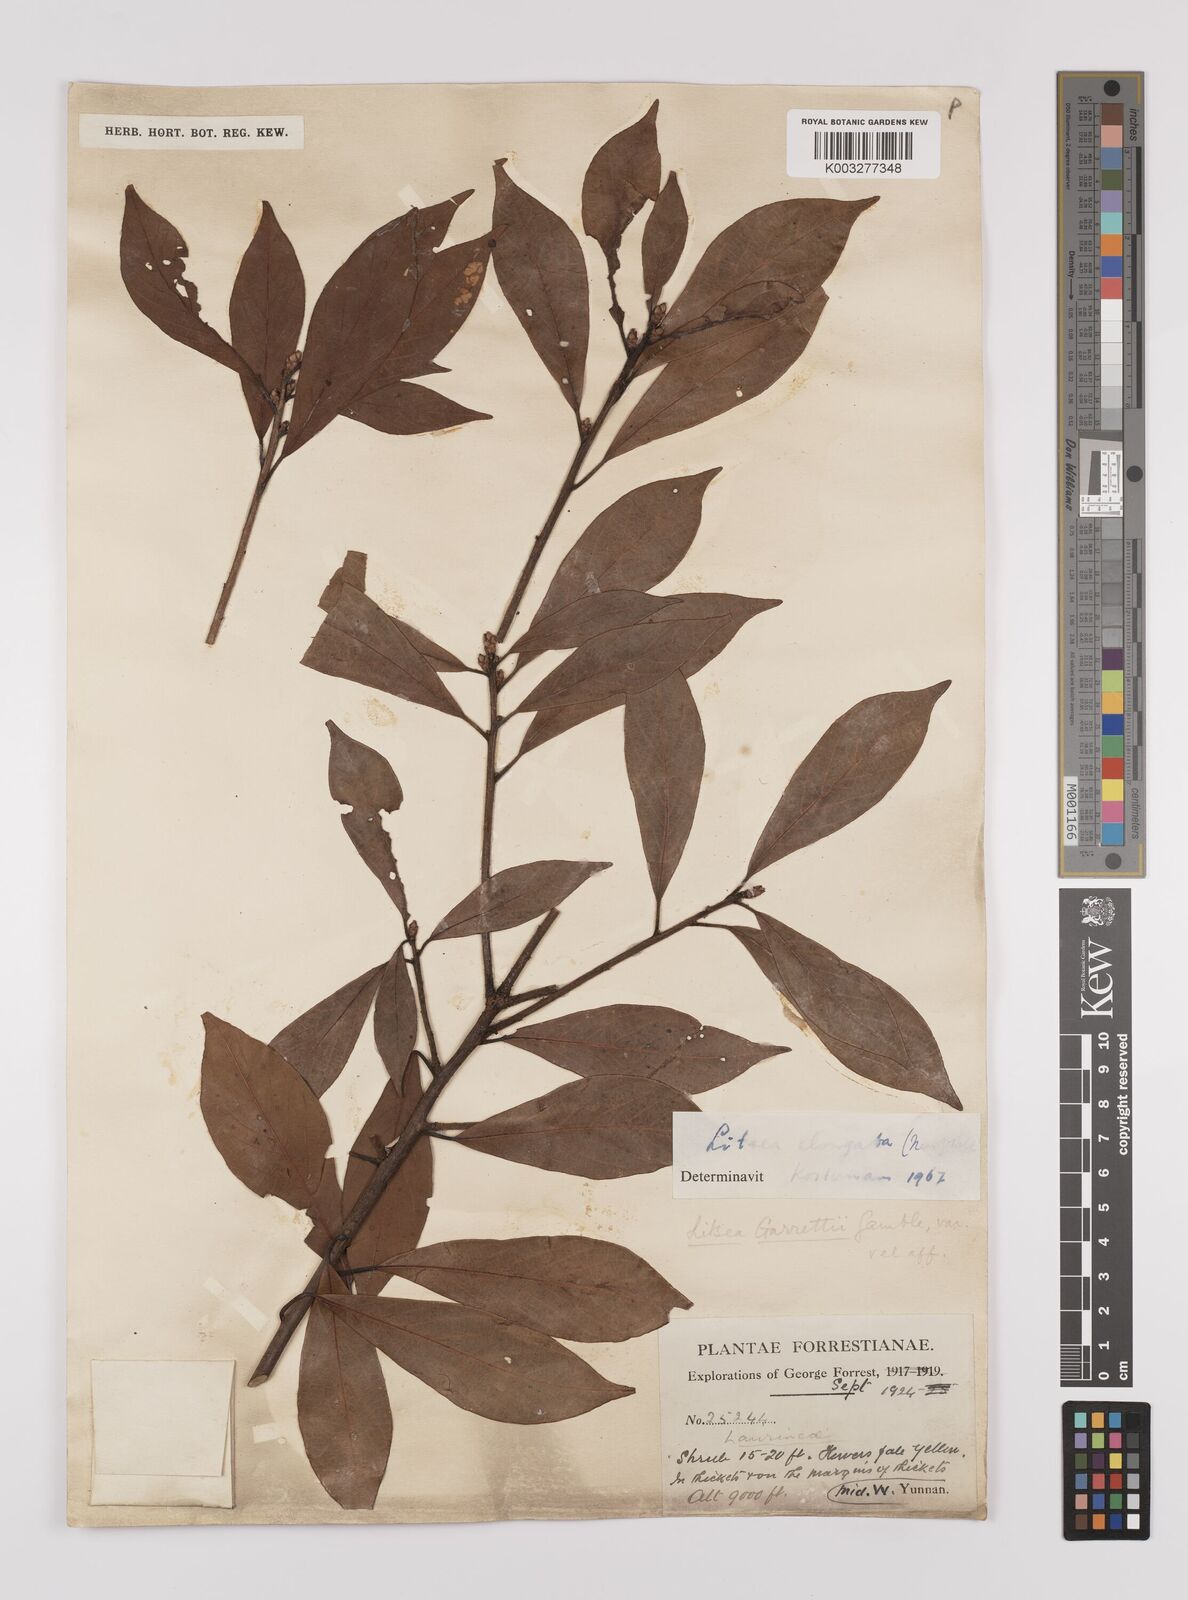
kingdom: Plantae
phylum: Tracheophyta
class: Magnoliopsida
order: Laurales
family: Lauraceae
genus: Litsea
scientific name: Litsea elongata
